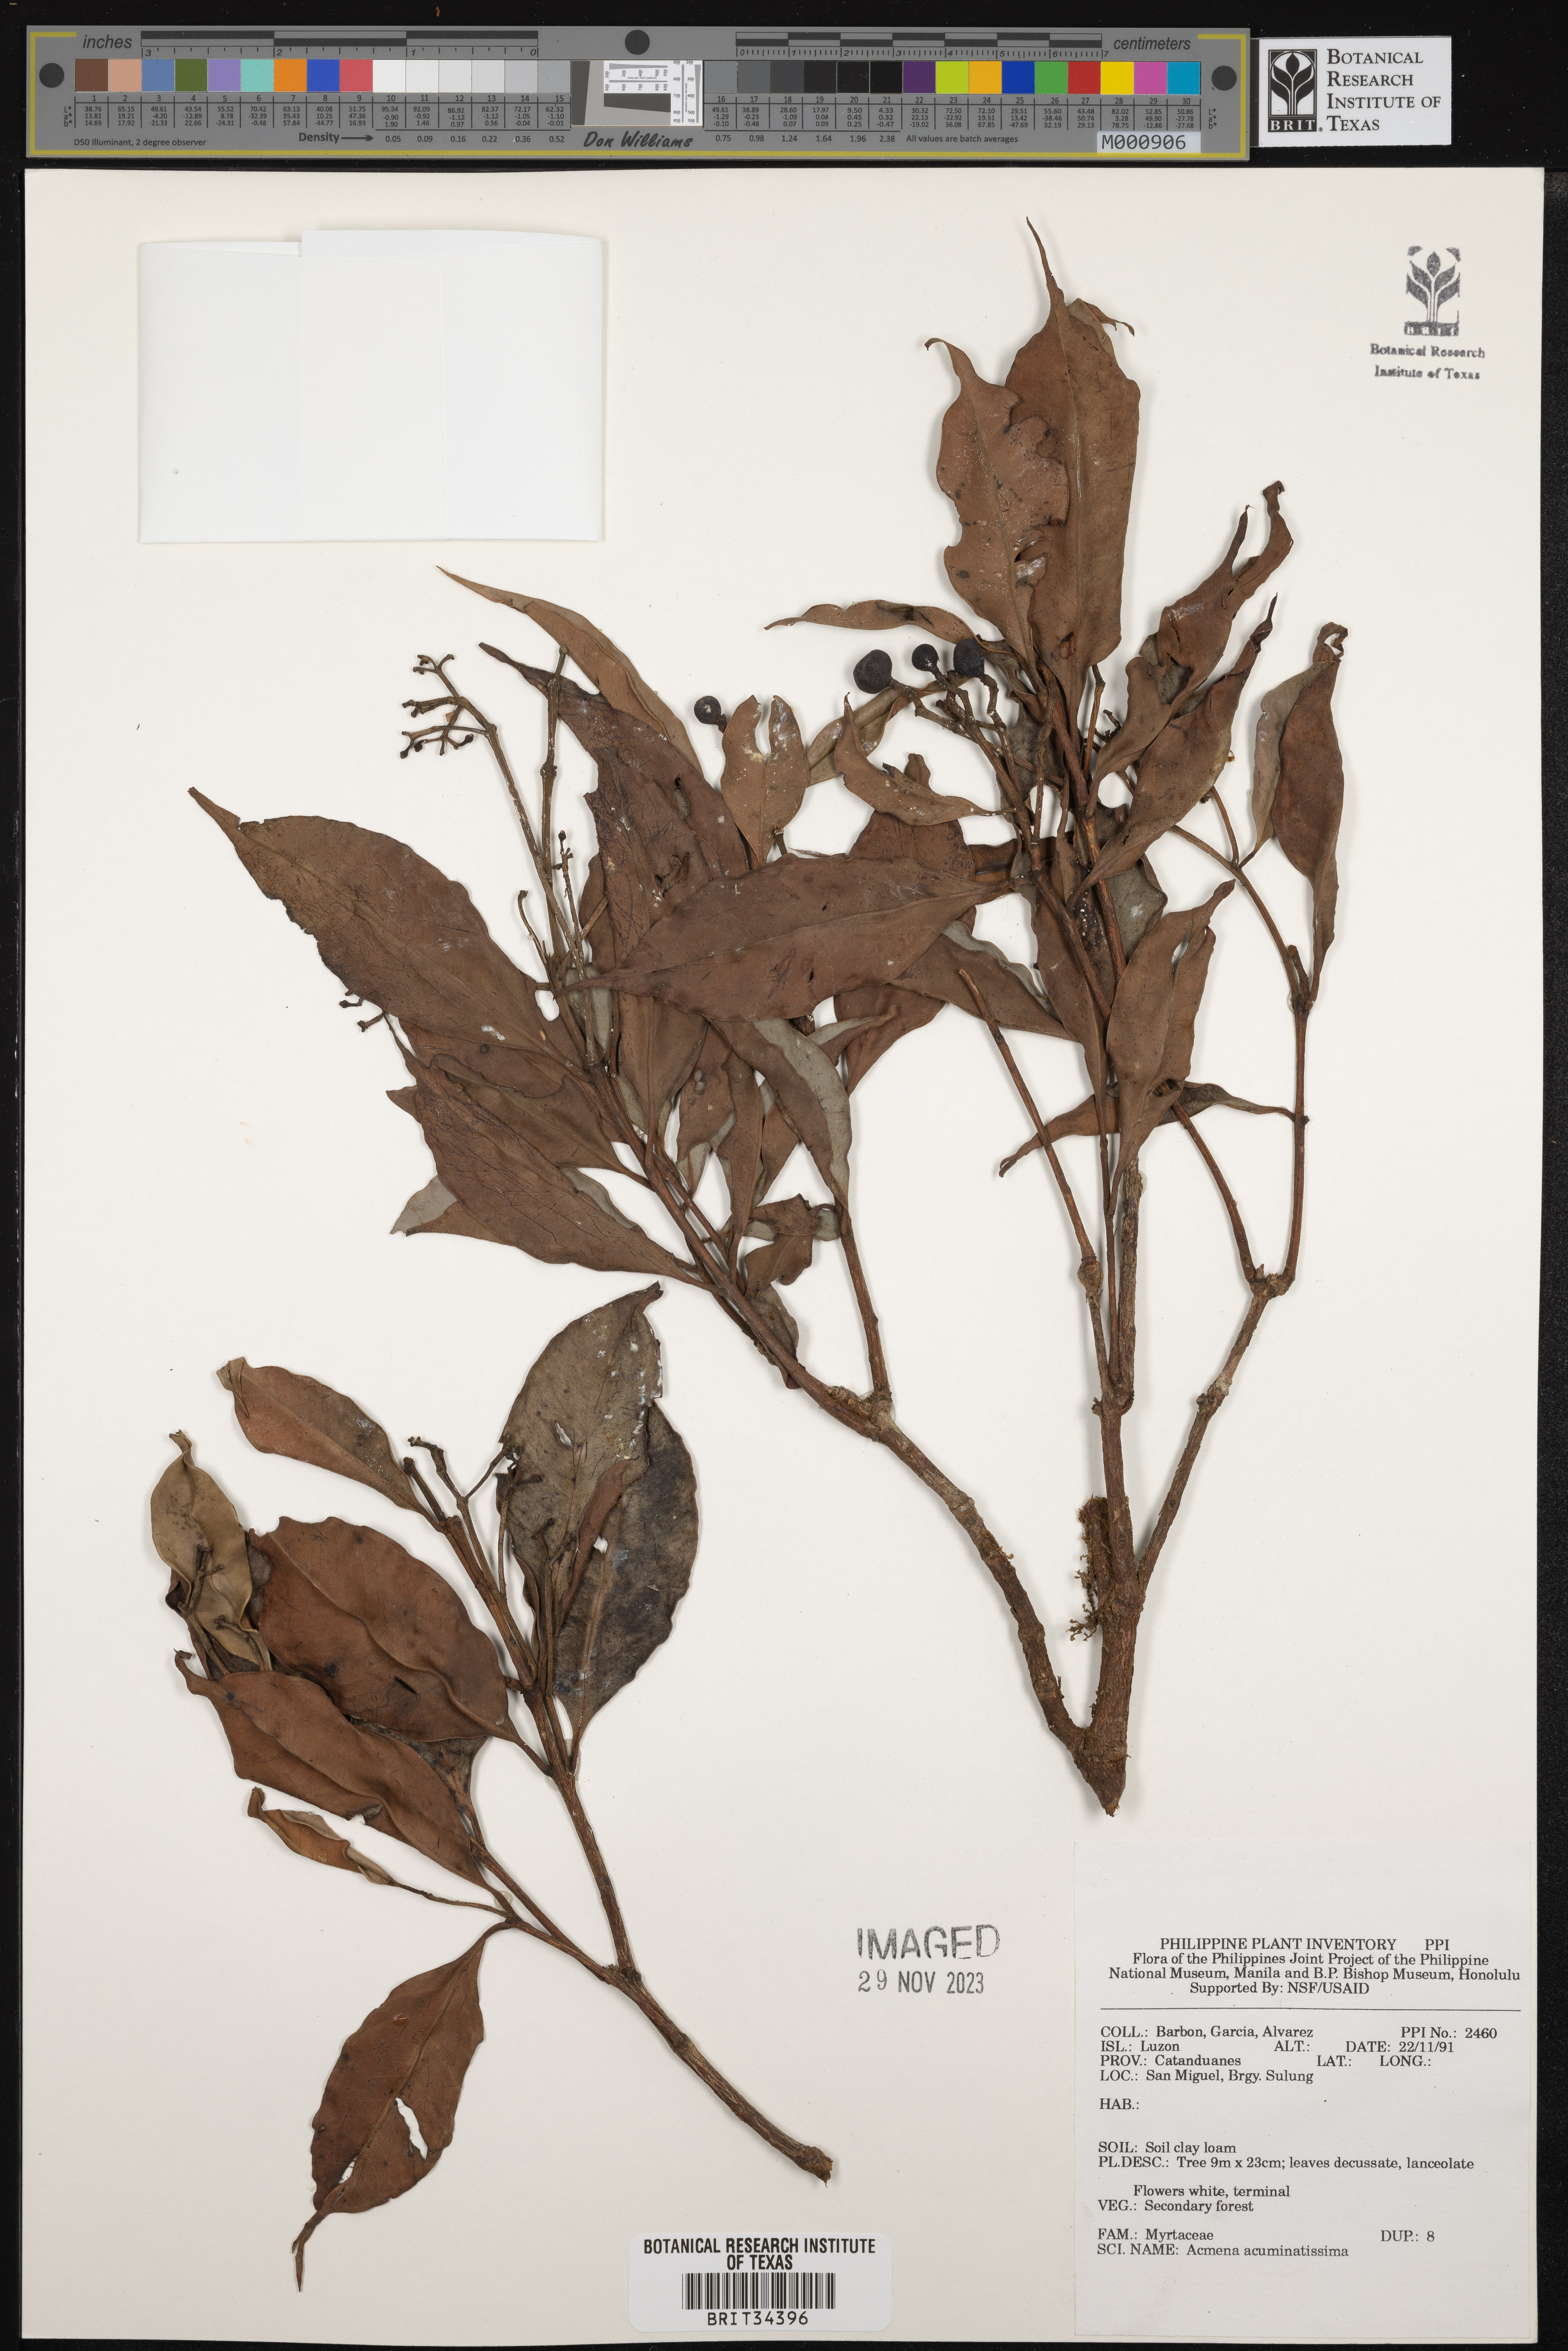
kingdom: Plantae
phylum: Tracheophyta
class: Magnoliopsida
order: Myrtales
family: Myrtaceae
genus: Syzygium
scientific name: Syzygium acuminatissimum
